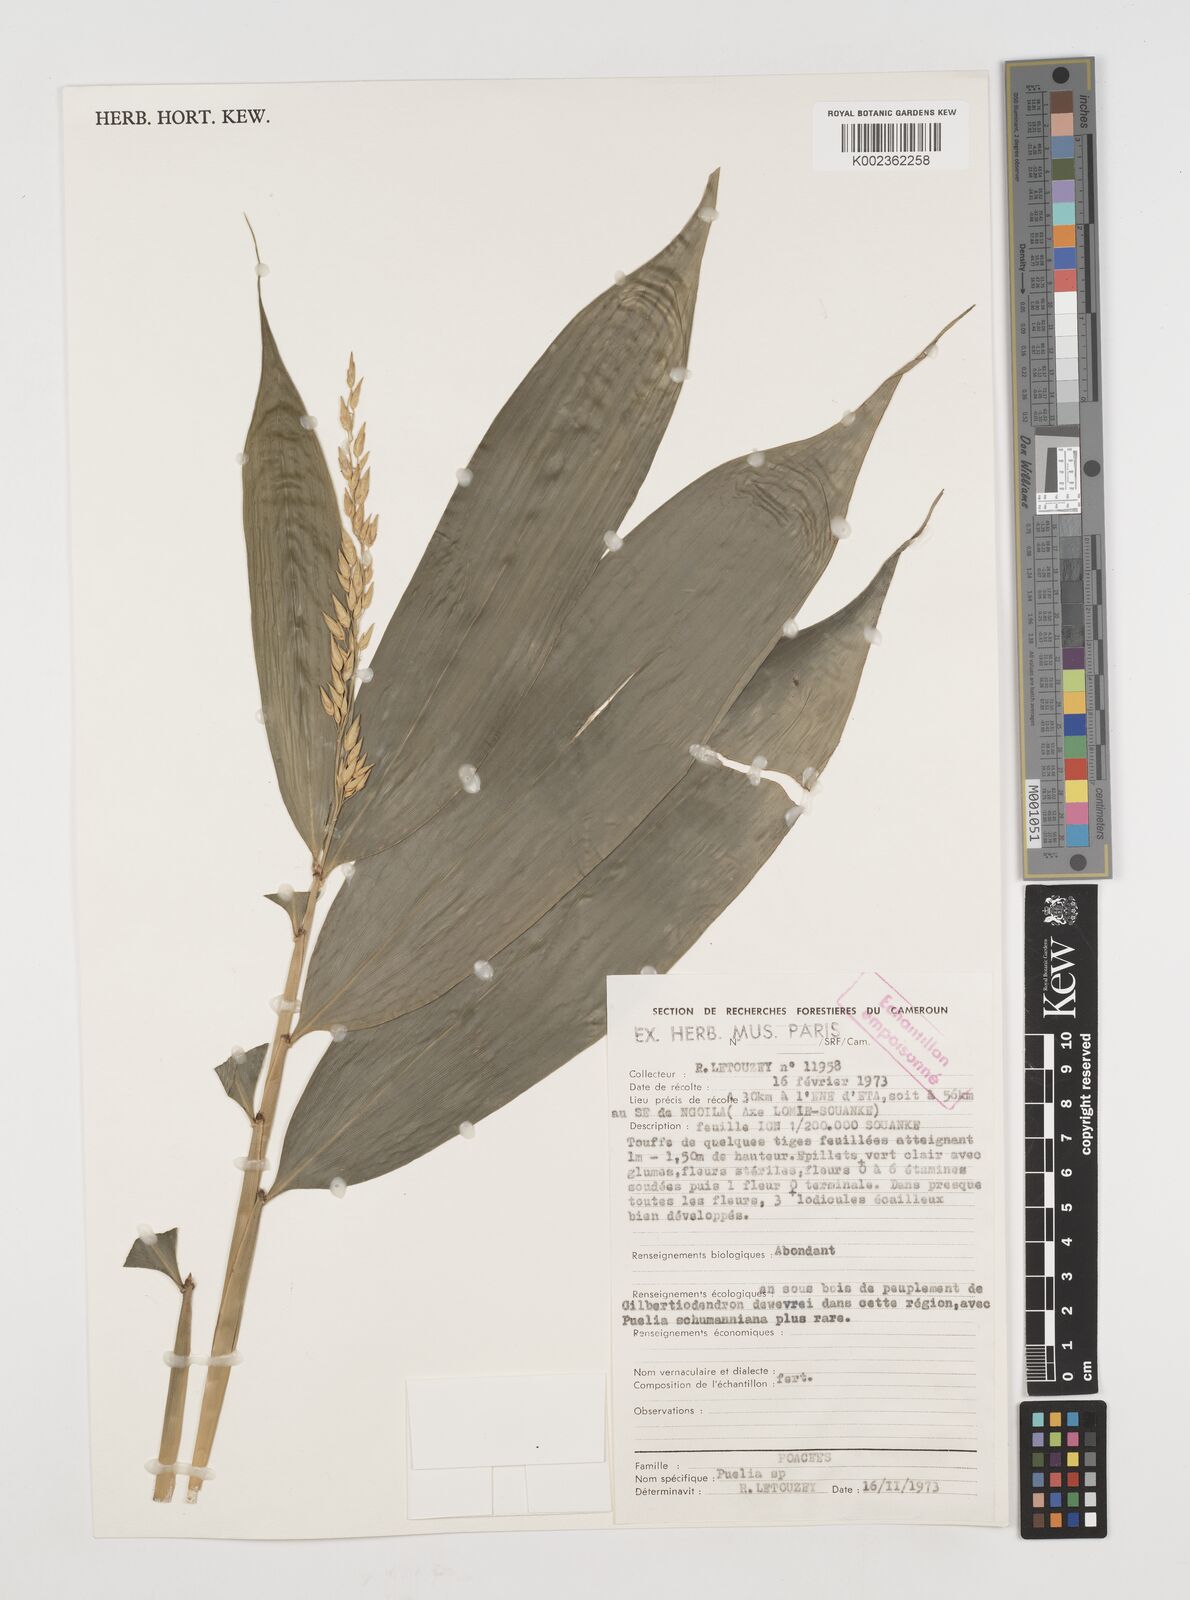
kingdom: Plantae
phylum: Tracheophyta
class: Liliopsida
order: Poales
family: Poaceae
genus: Puelia
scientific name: Puelia olyriformis
